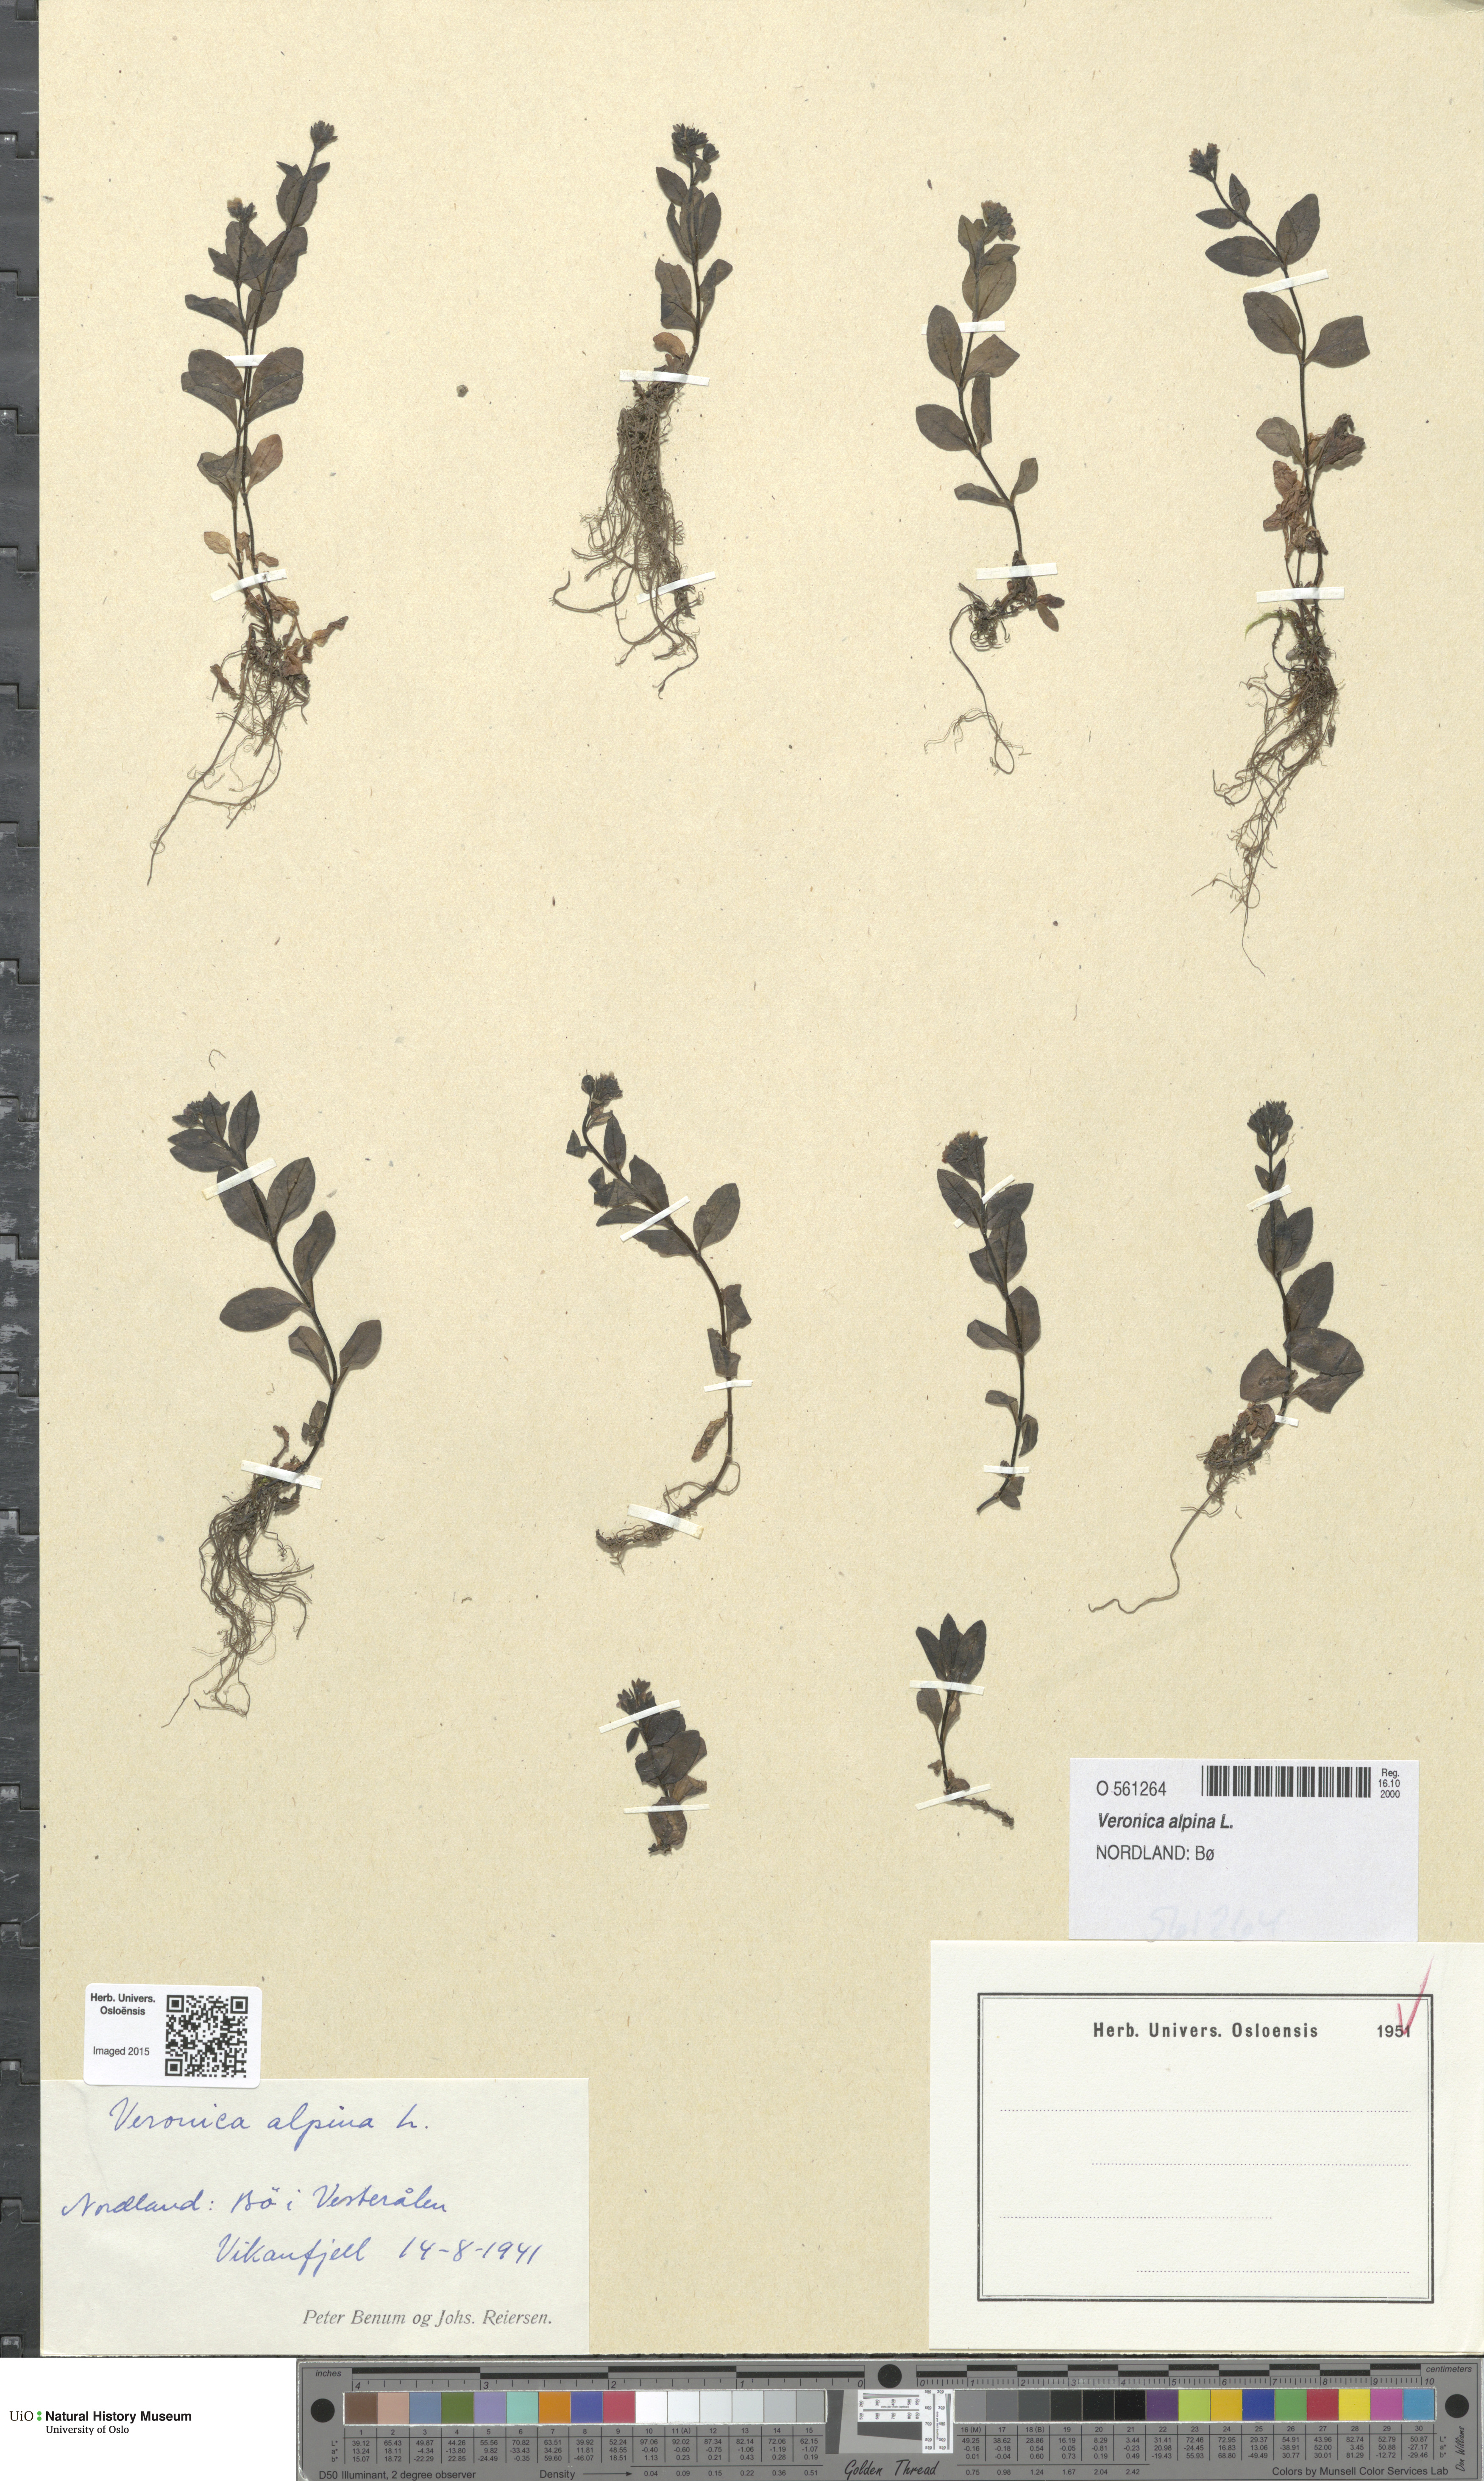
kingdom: Plantae
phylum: Tracheophyta
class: Magnoliopsida
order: Lamiales
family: Plantaginaceae
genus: Veronica
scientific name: Veronica alpina
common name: Alpine speedwell
